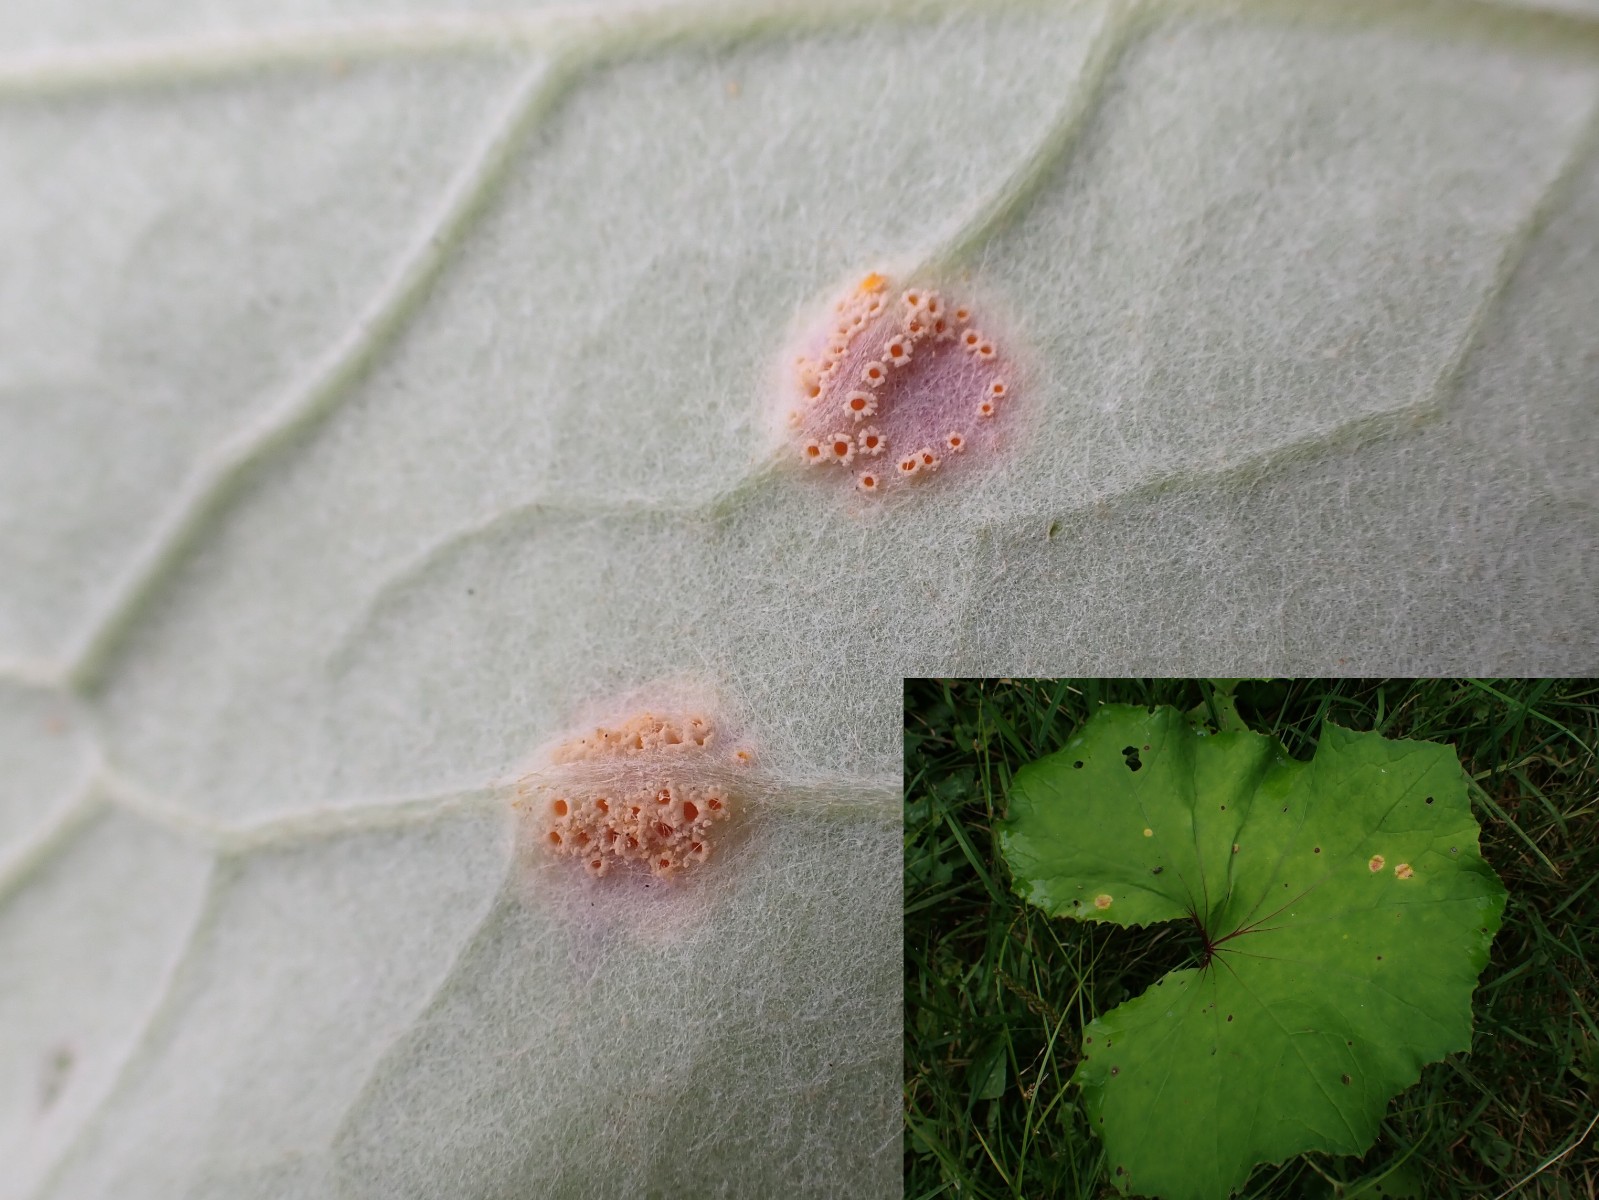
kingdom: Fungi
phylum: Basidiomycota
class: Pucciniomycetes
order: Pucciniales
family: Pucciniaceae
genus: Puccinia
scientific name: Puccinia poarum
